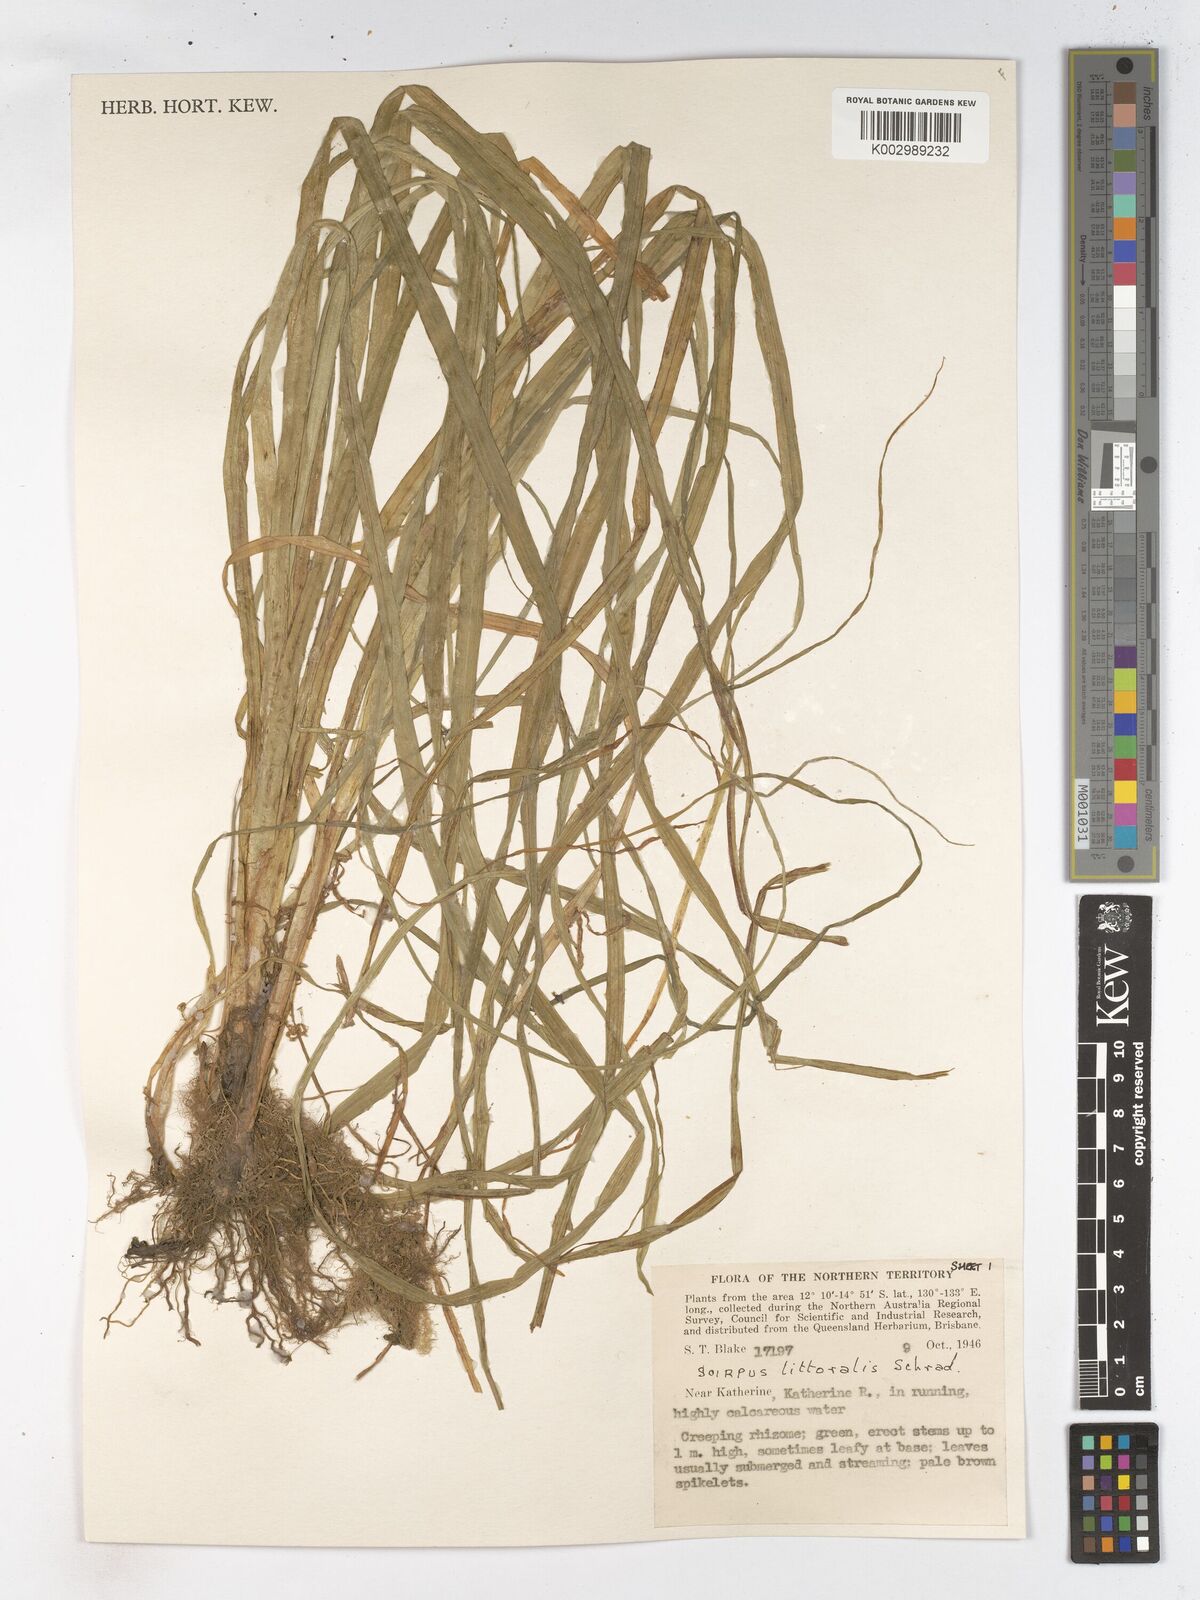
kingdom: Plantae
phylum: Tracheophyta
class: Liliopsida
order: Poales
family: Cyperaceae
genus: Schoenoplectus
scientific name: Schoenoplectus litoralis
